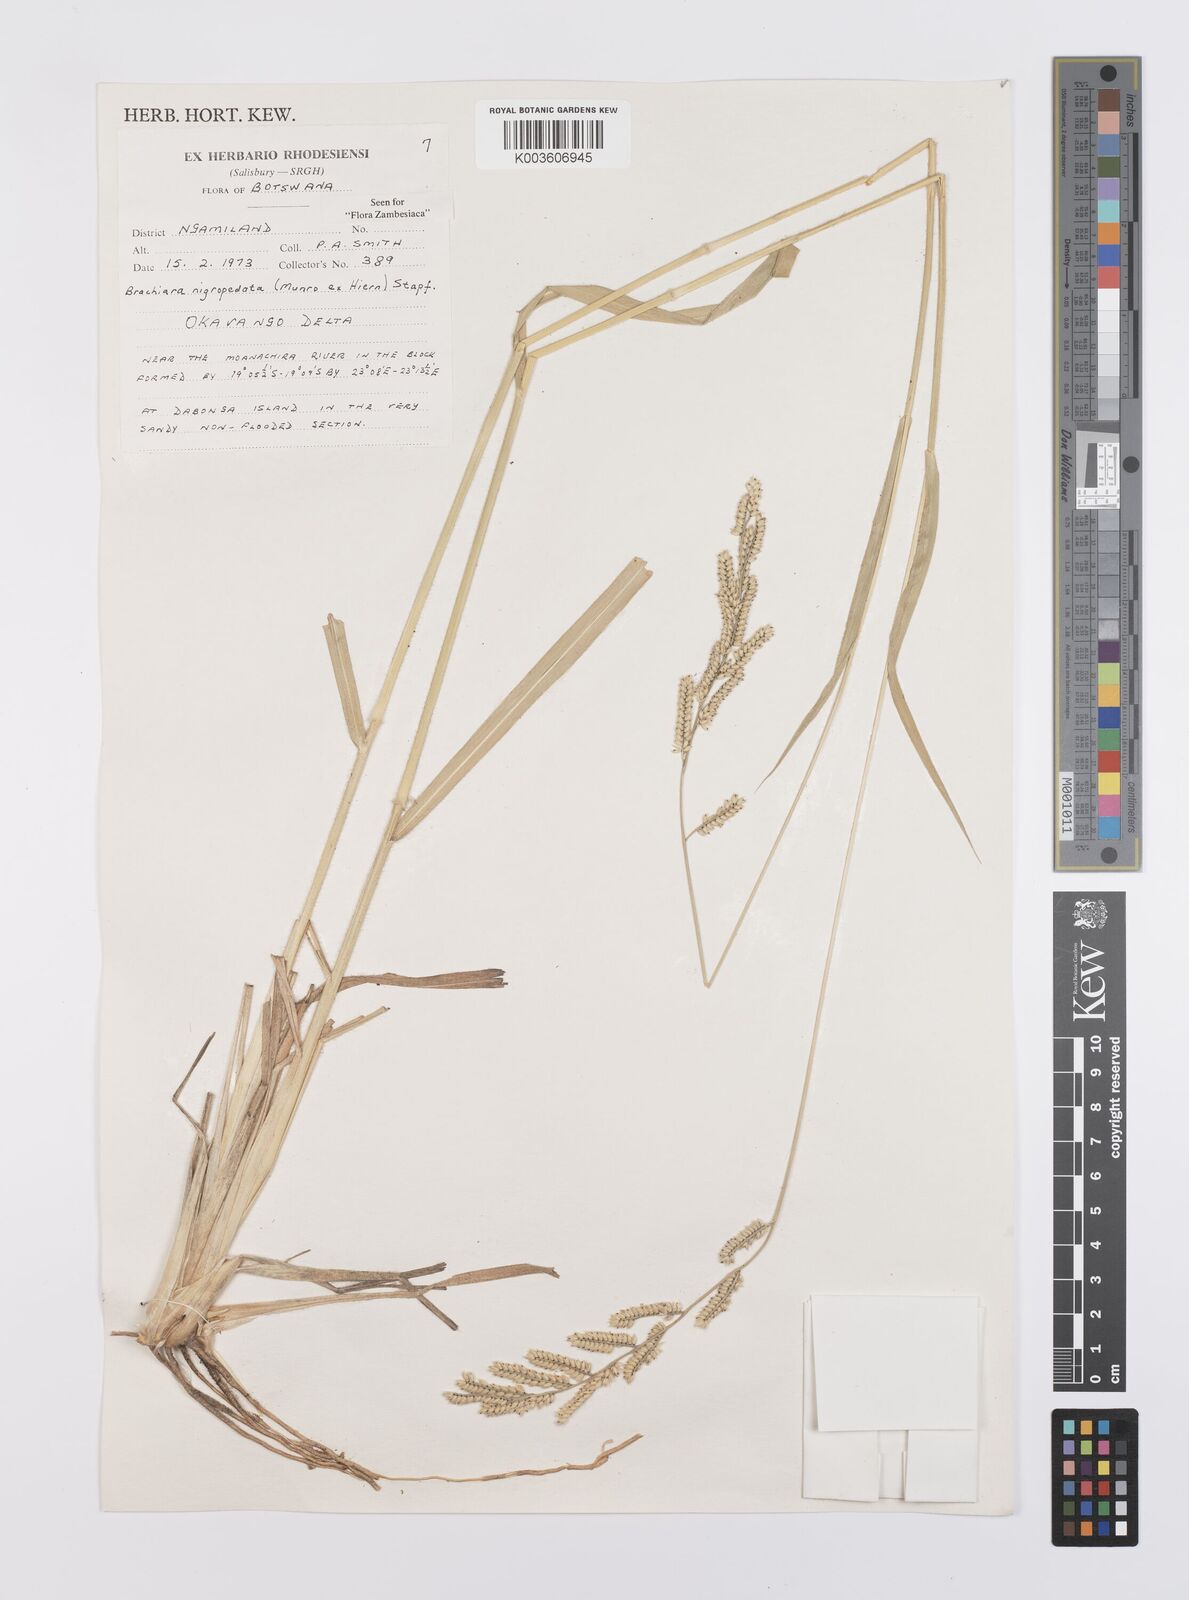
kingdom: Plantae
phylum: Tracheophyta
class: Liliopsida
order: Poales
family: Poaceae
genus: Urochloa
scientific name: Urochloa nigropedata
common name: Spotted signal grass
